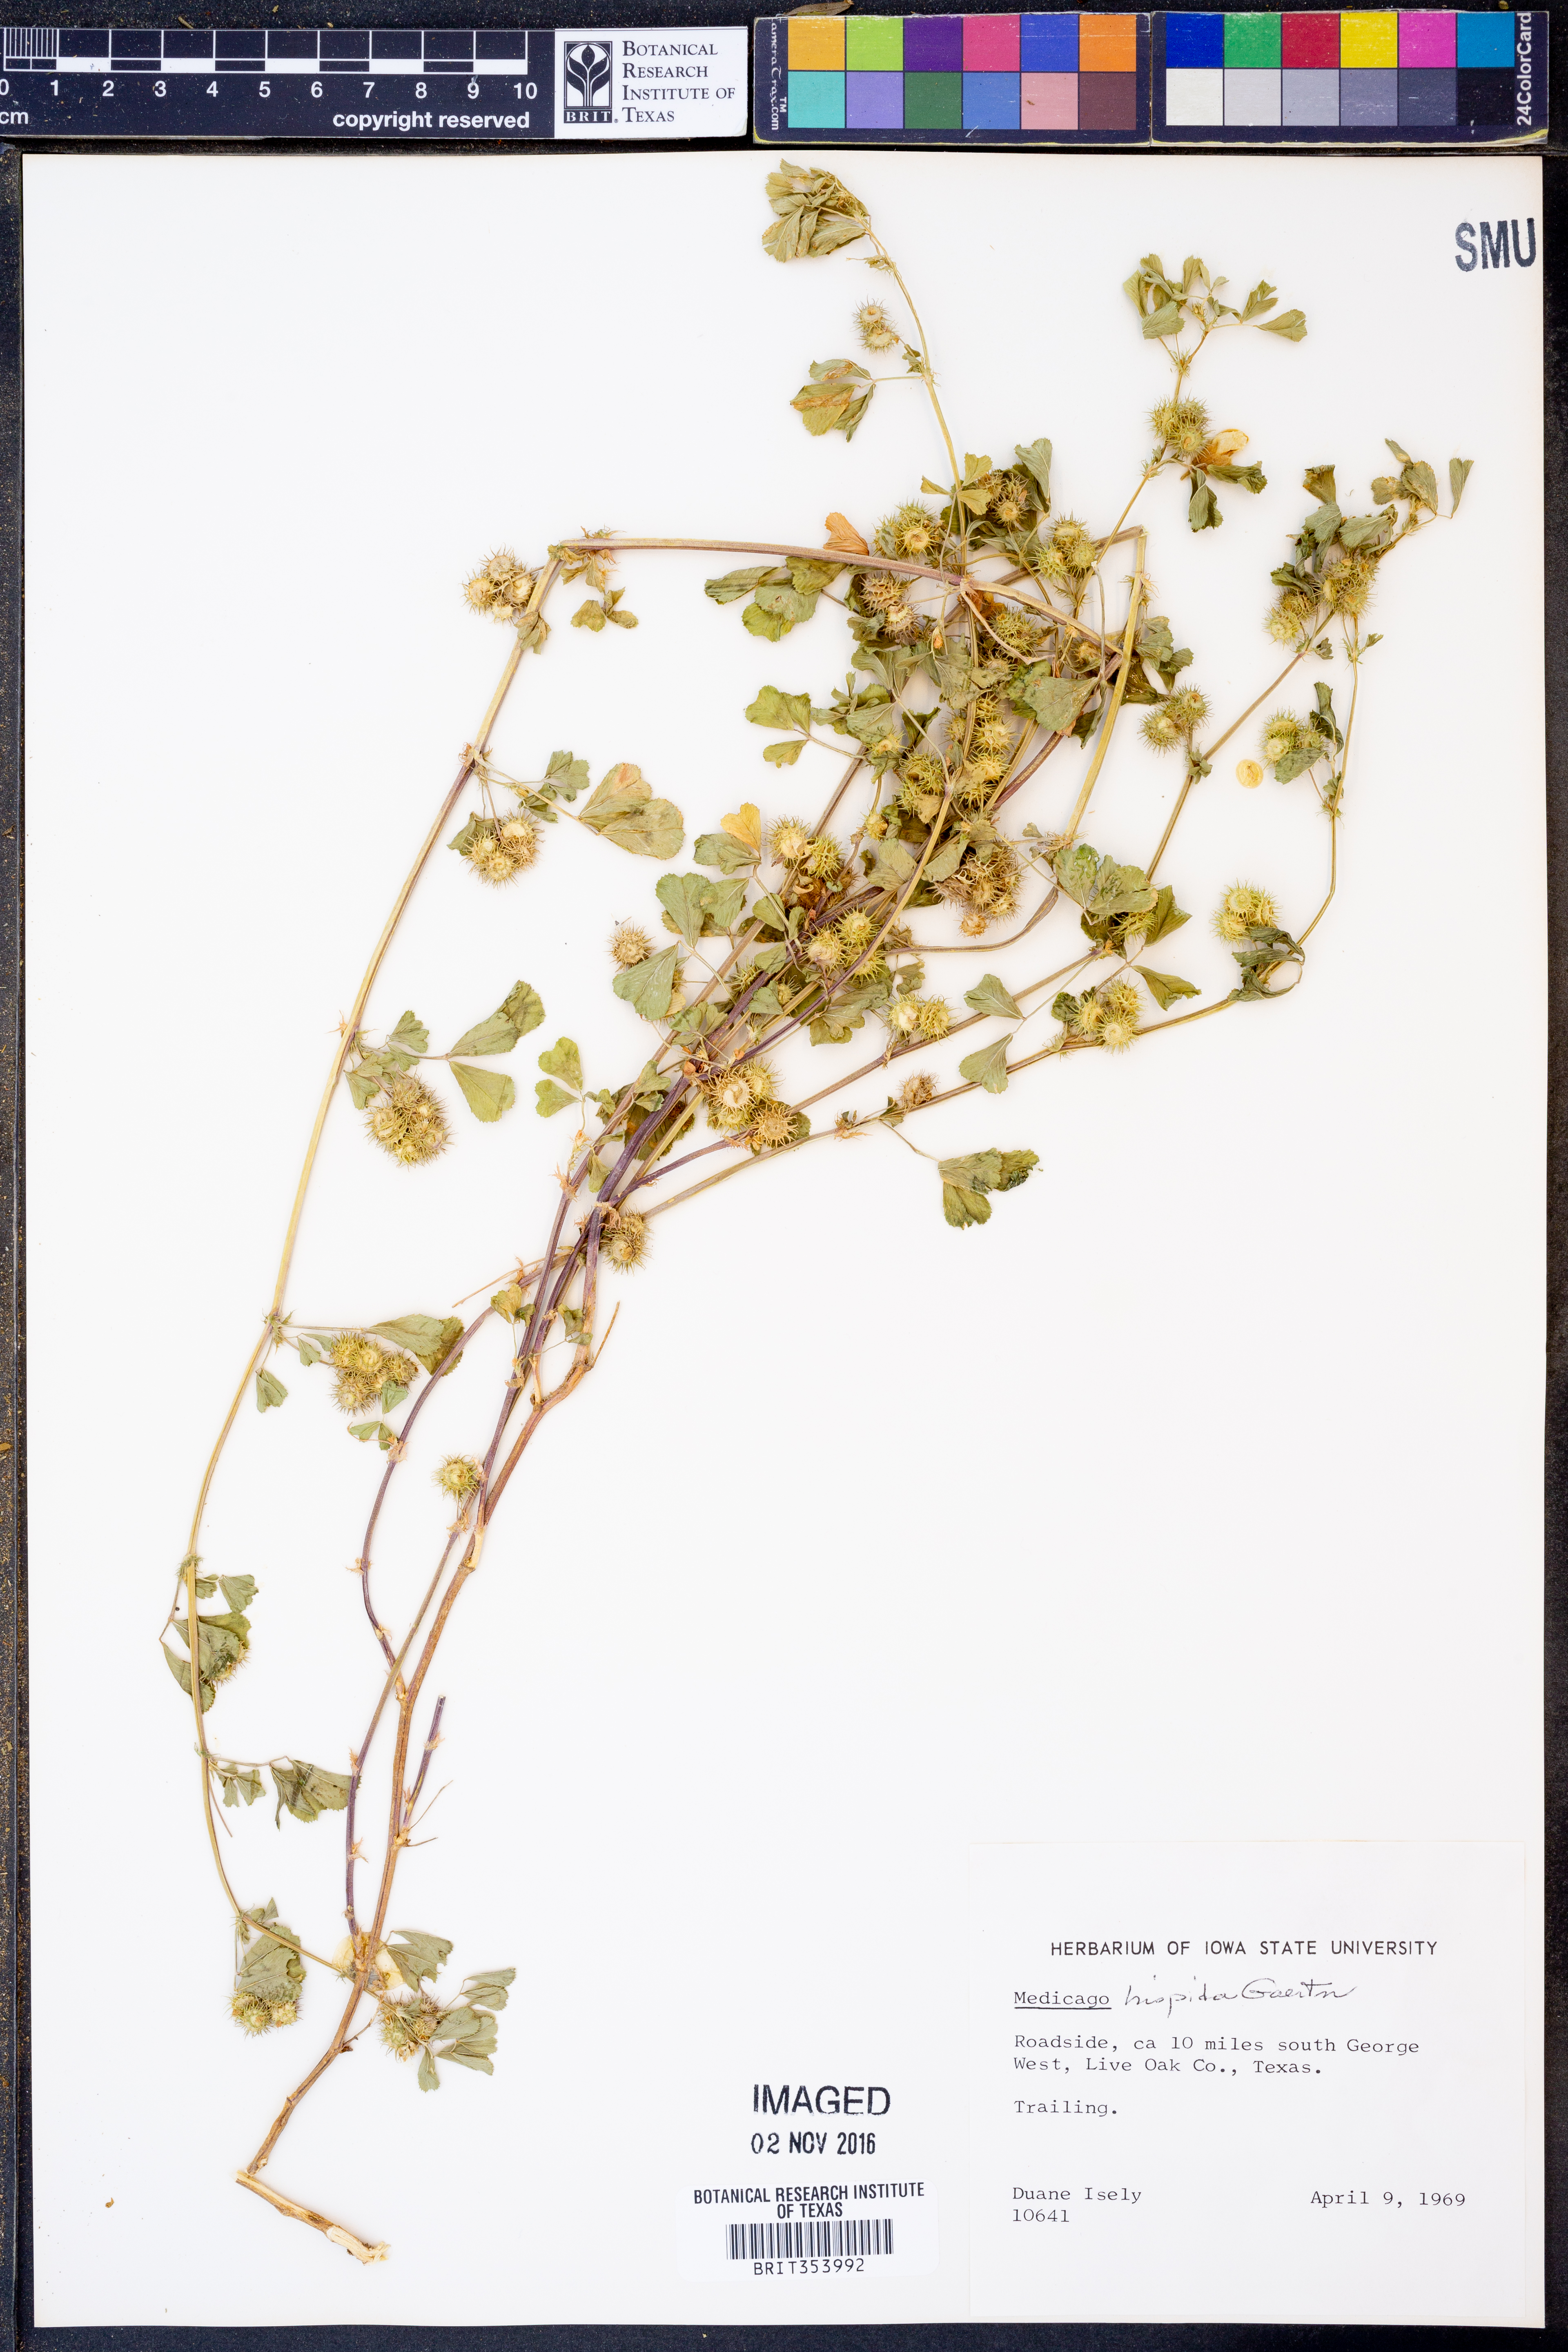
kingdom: Plantae
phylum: Tracheophyta
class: Magnoliopsida
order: Fabales
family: Fabaceae
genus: Medicago
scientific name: Medicago polymorpha
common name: Burclover
